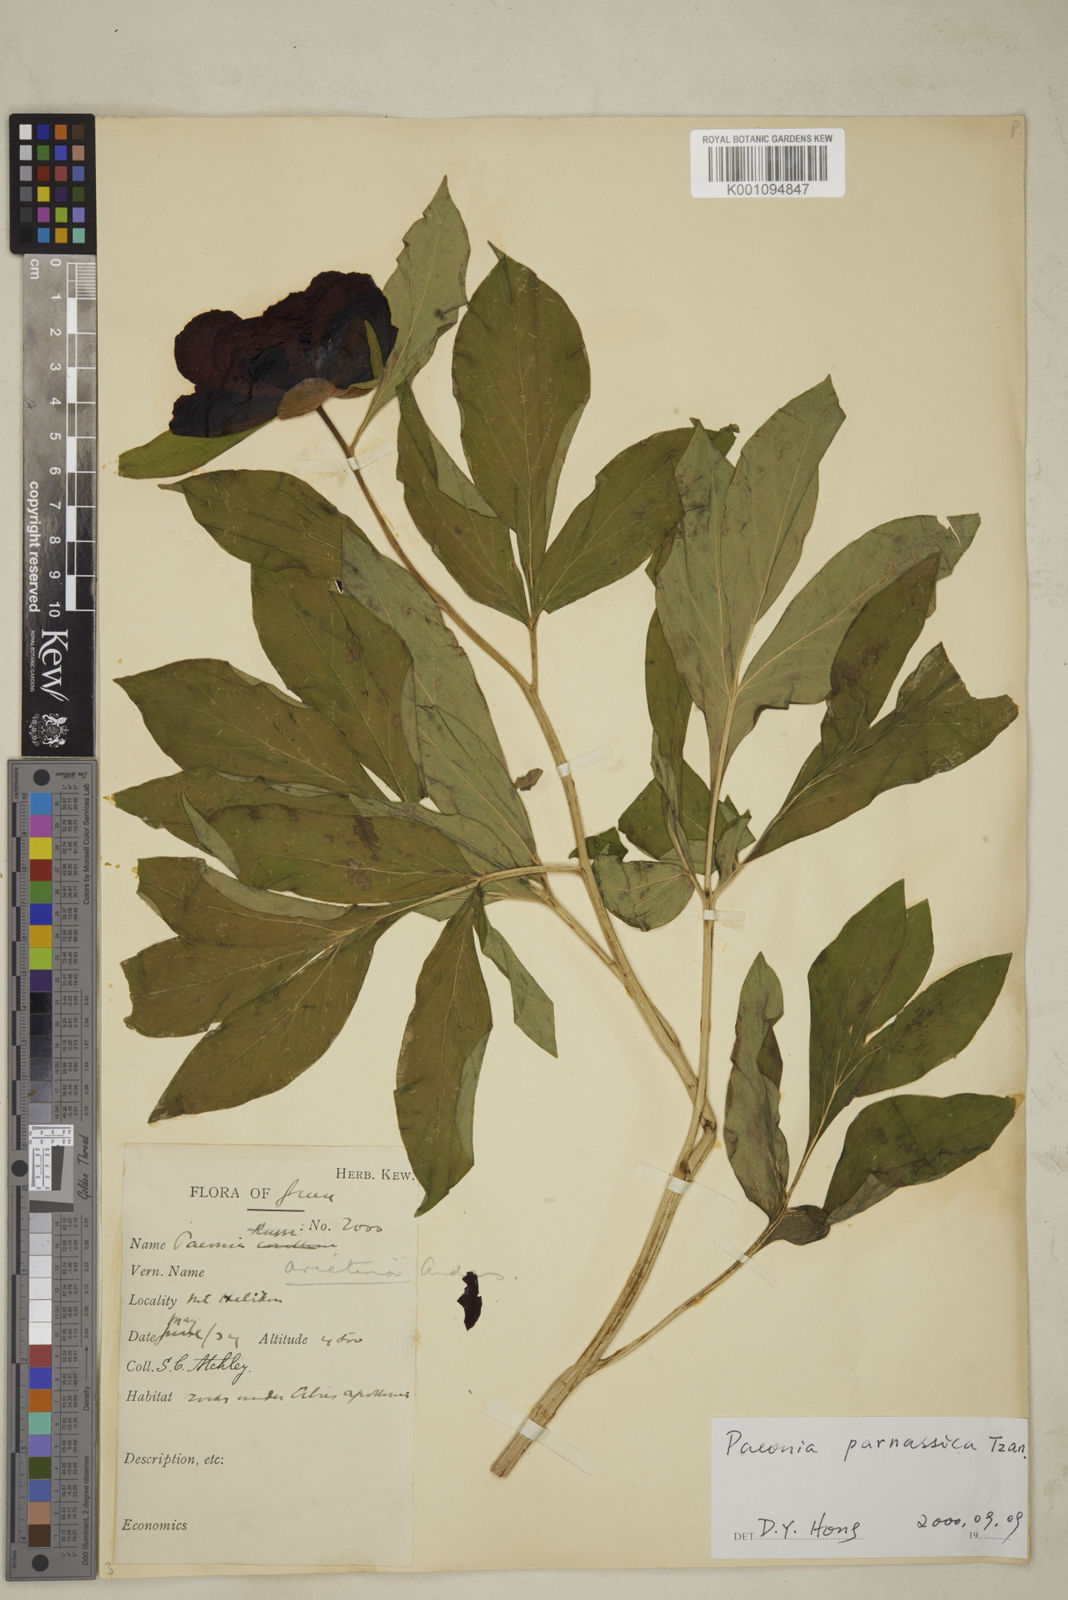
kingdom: Plantae
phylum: Tracheophyta
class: Magnoliopsida
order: Saxifragales
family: Paeoniaceae
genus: Paeonia
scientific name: Paeonia parnassica
